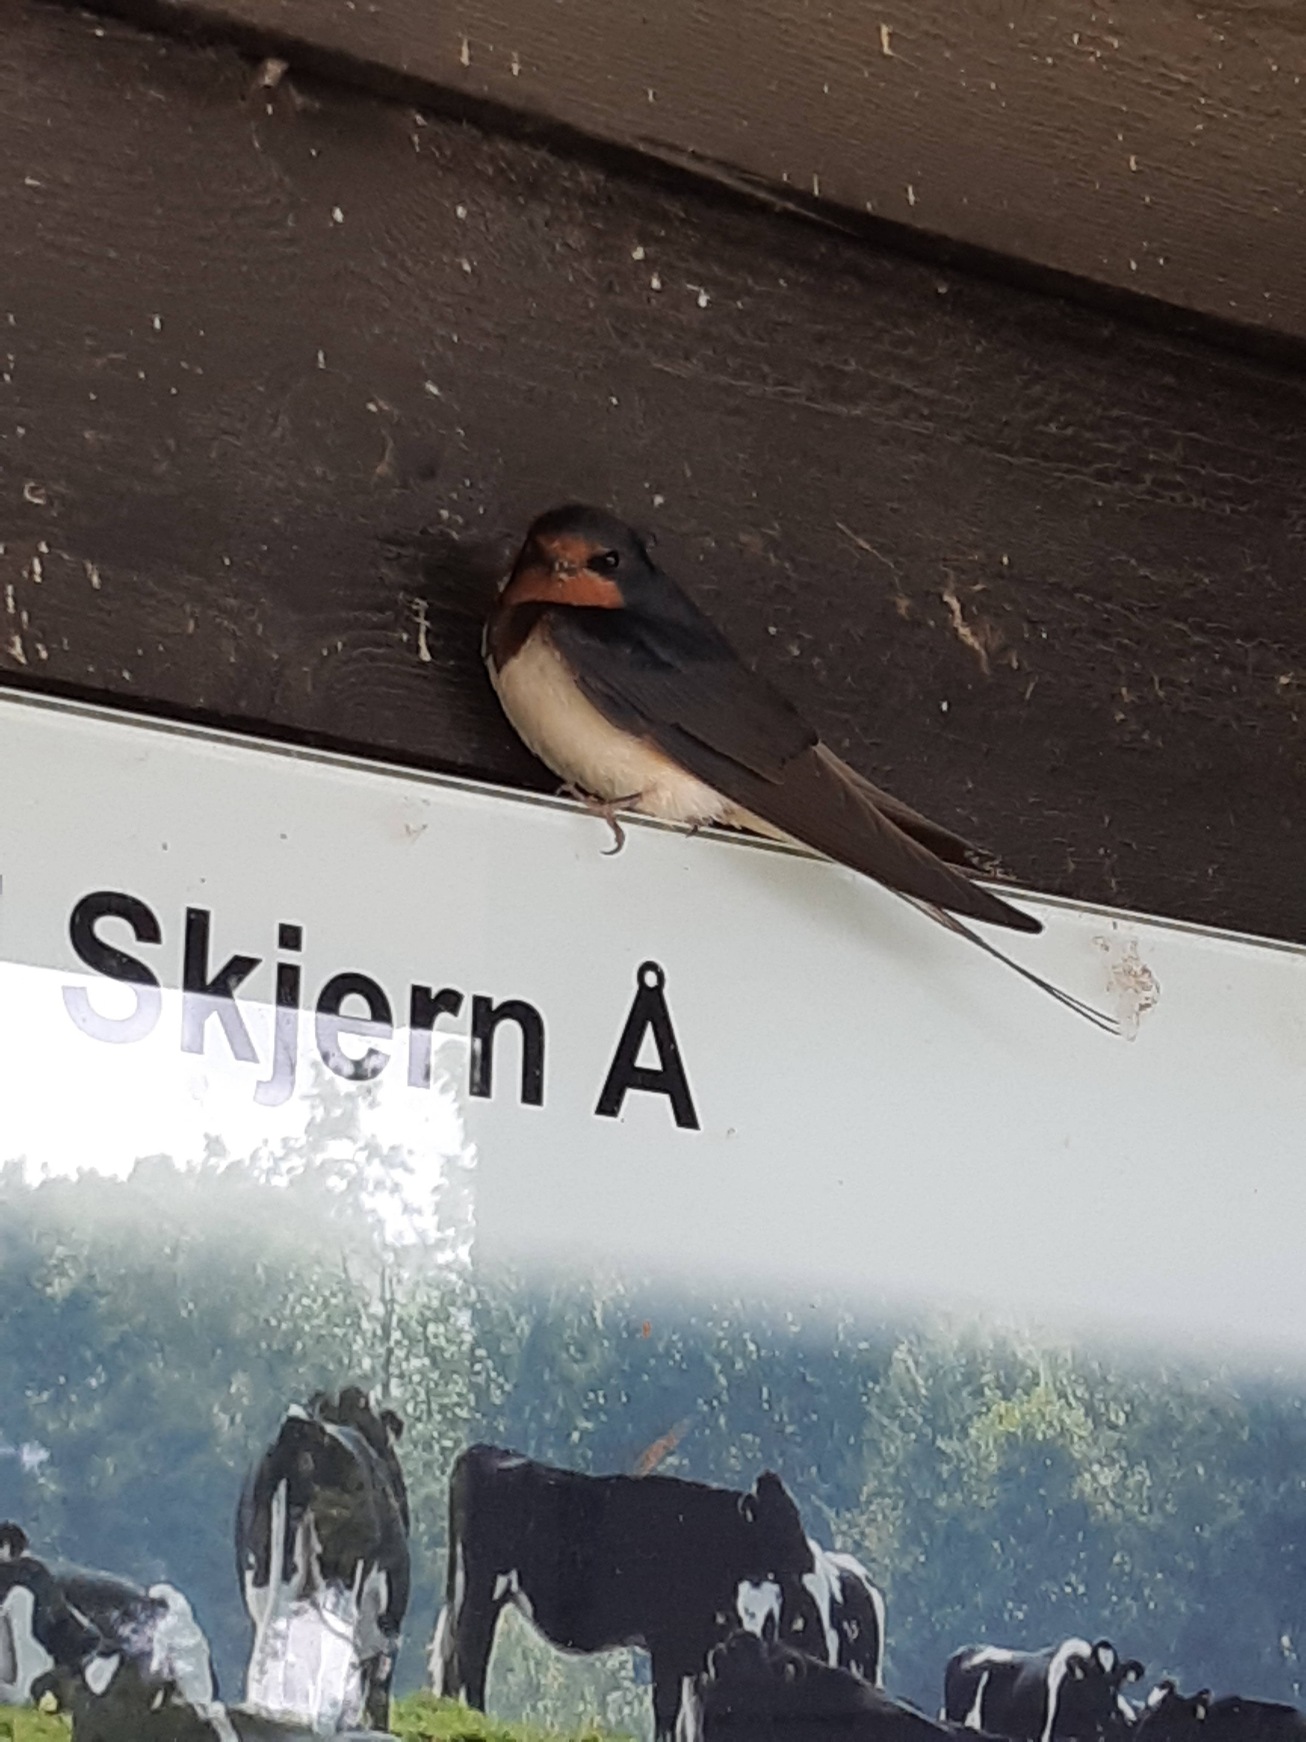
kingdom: Animalia
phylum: Chordata
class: Aves
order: Passeriformes
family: Hirundinidae
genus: Hirundo
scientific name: Hirundo rustica
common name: Landsvale
